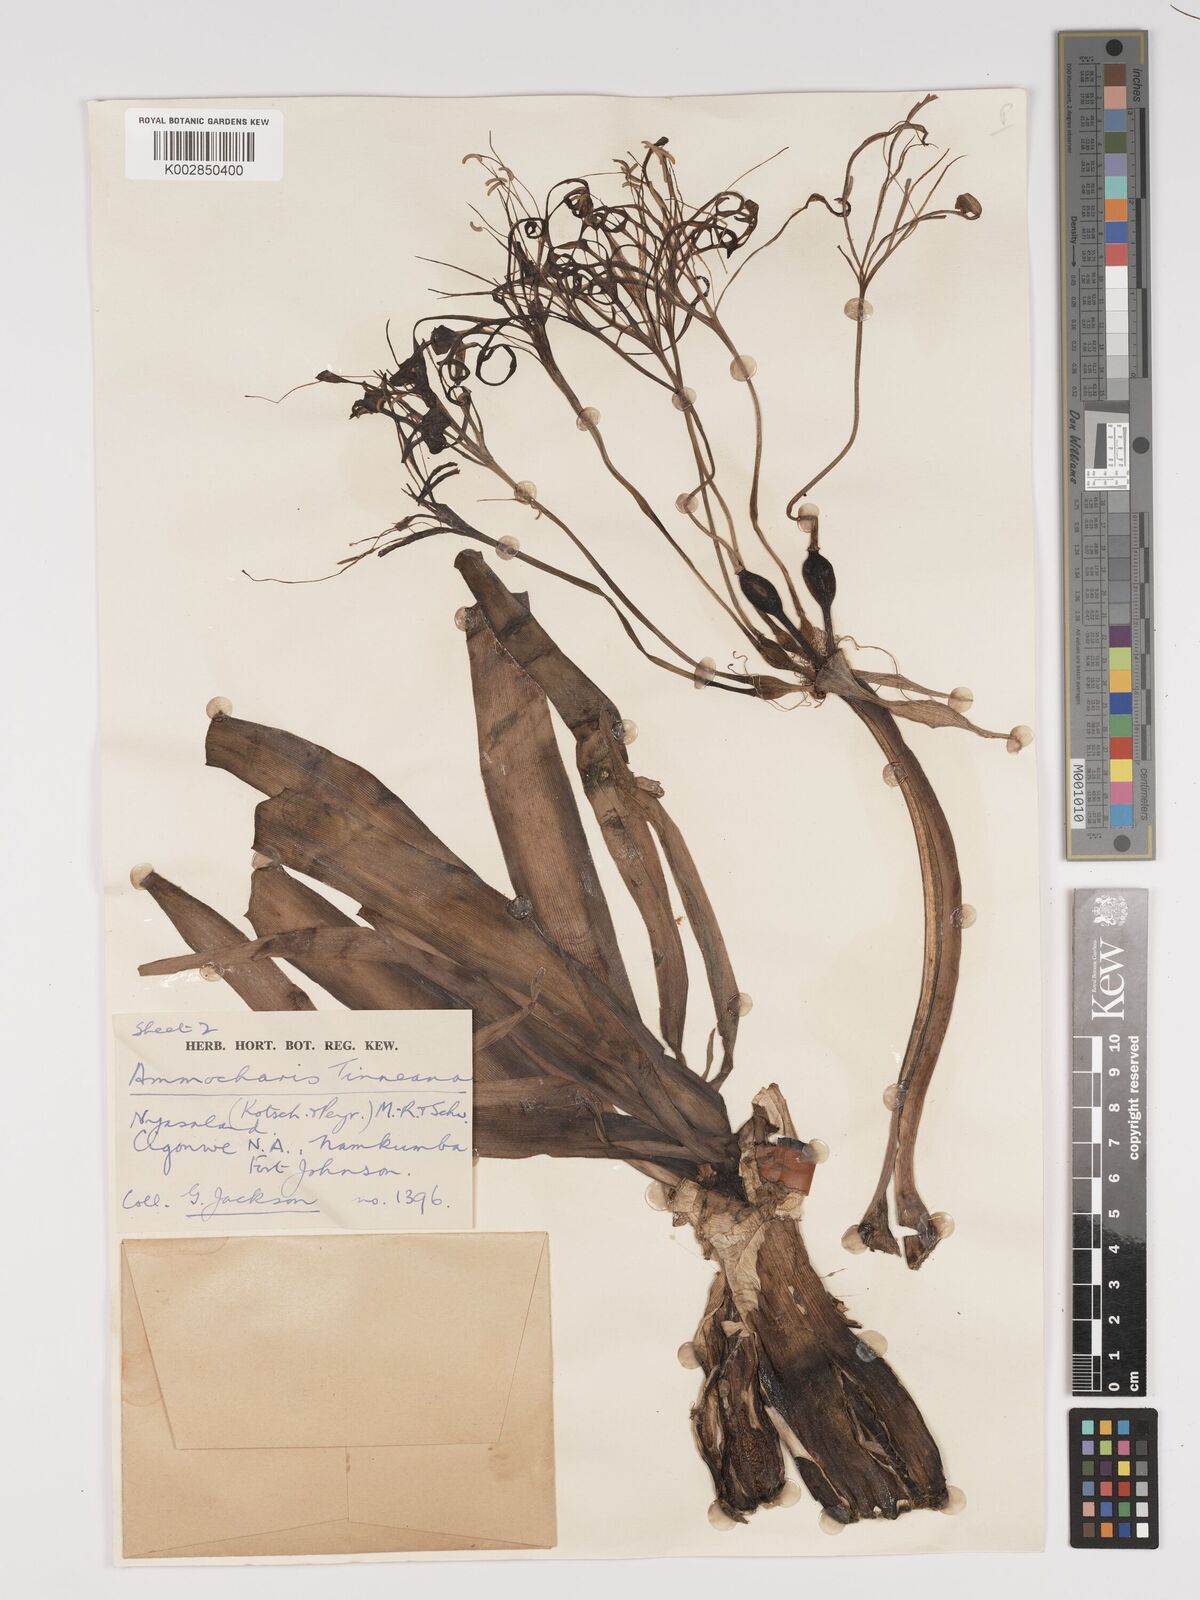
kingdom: Plantae
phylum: Tracheophyta
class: Liliopsida
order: Asparagales
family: Amaryllidaceae
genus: Ammocharis
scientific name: Ammocharis tinneana
